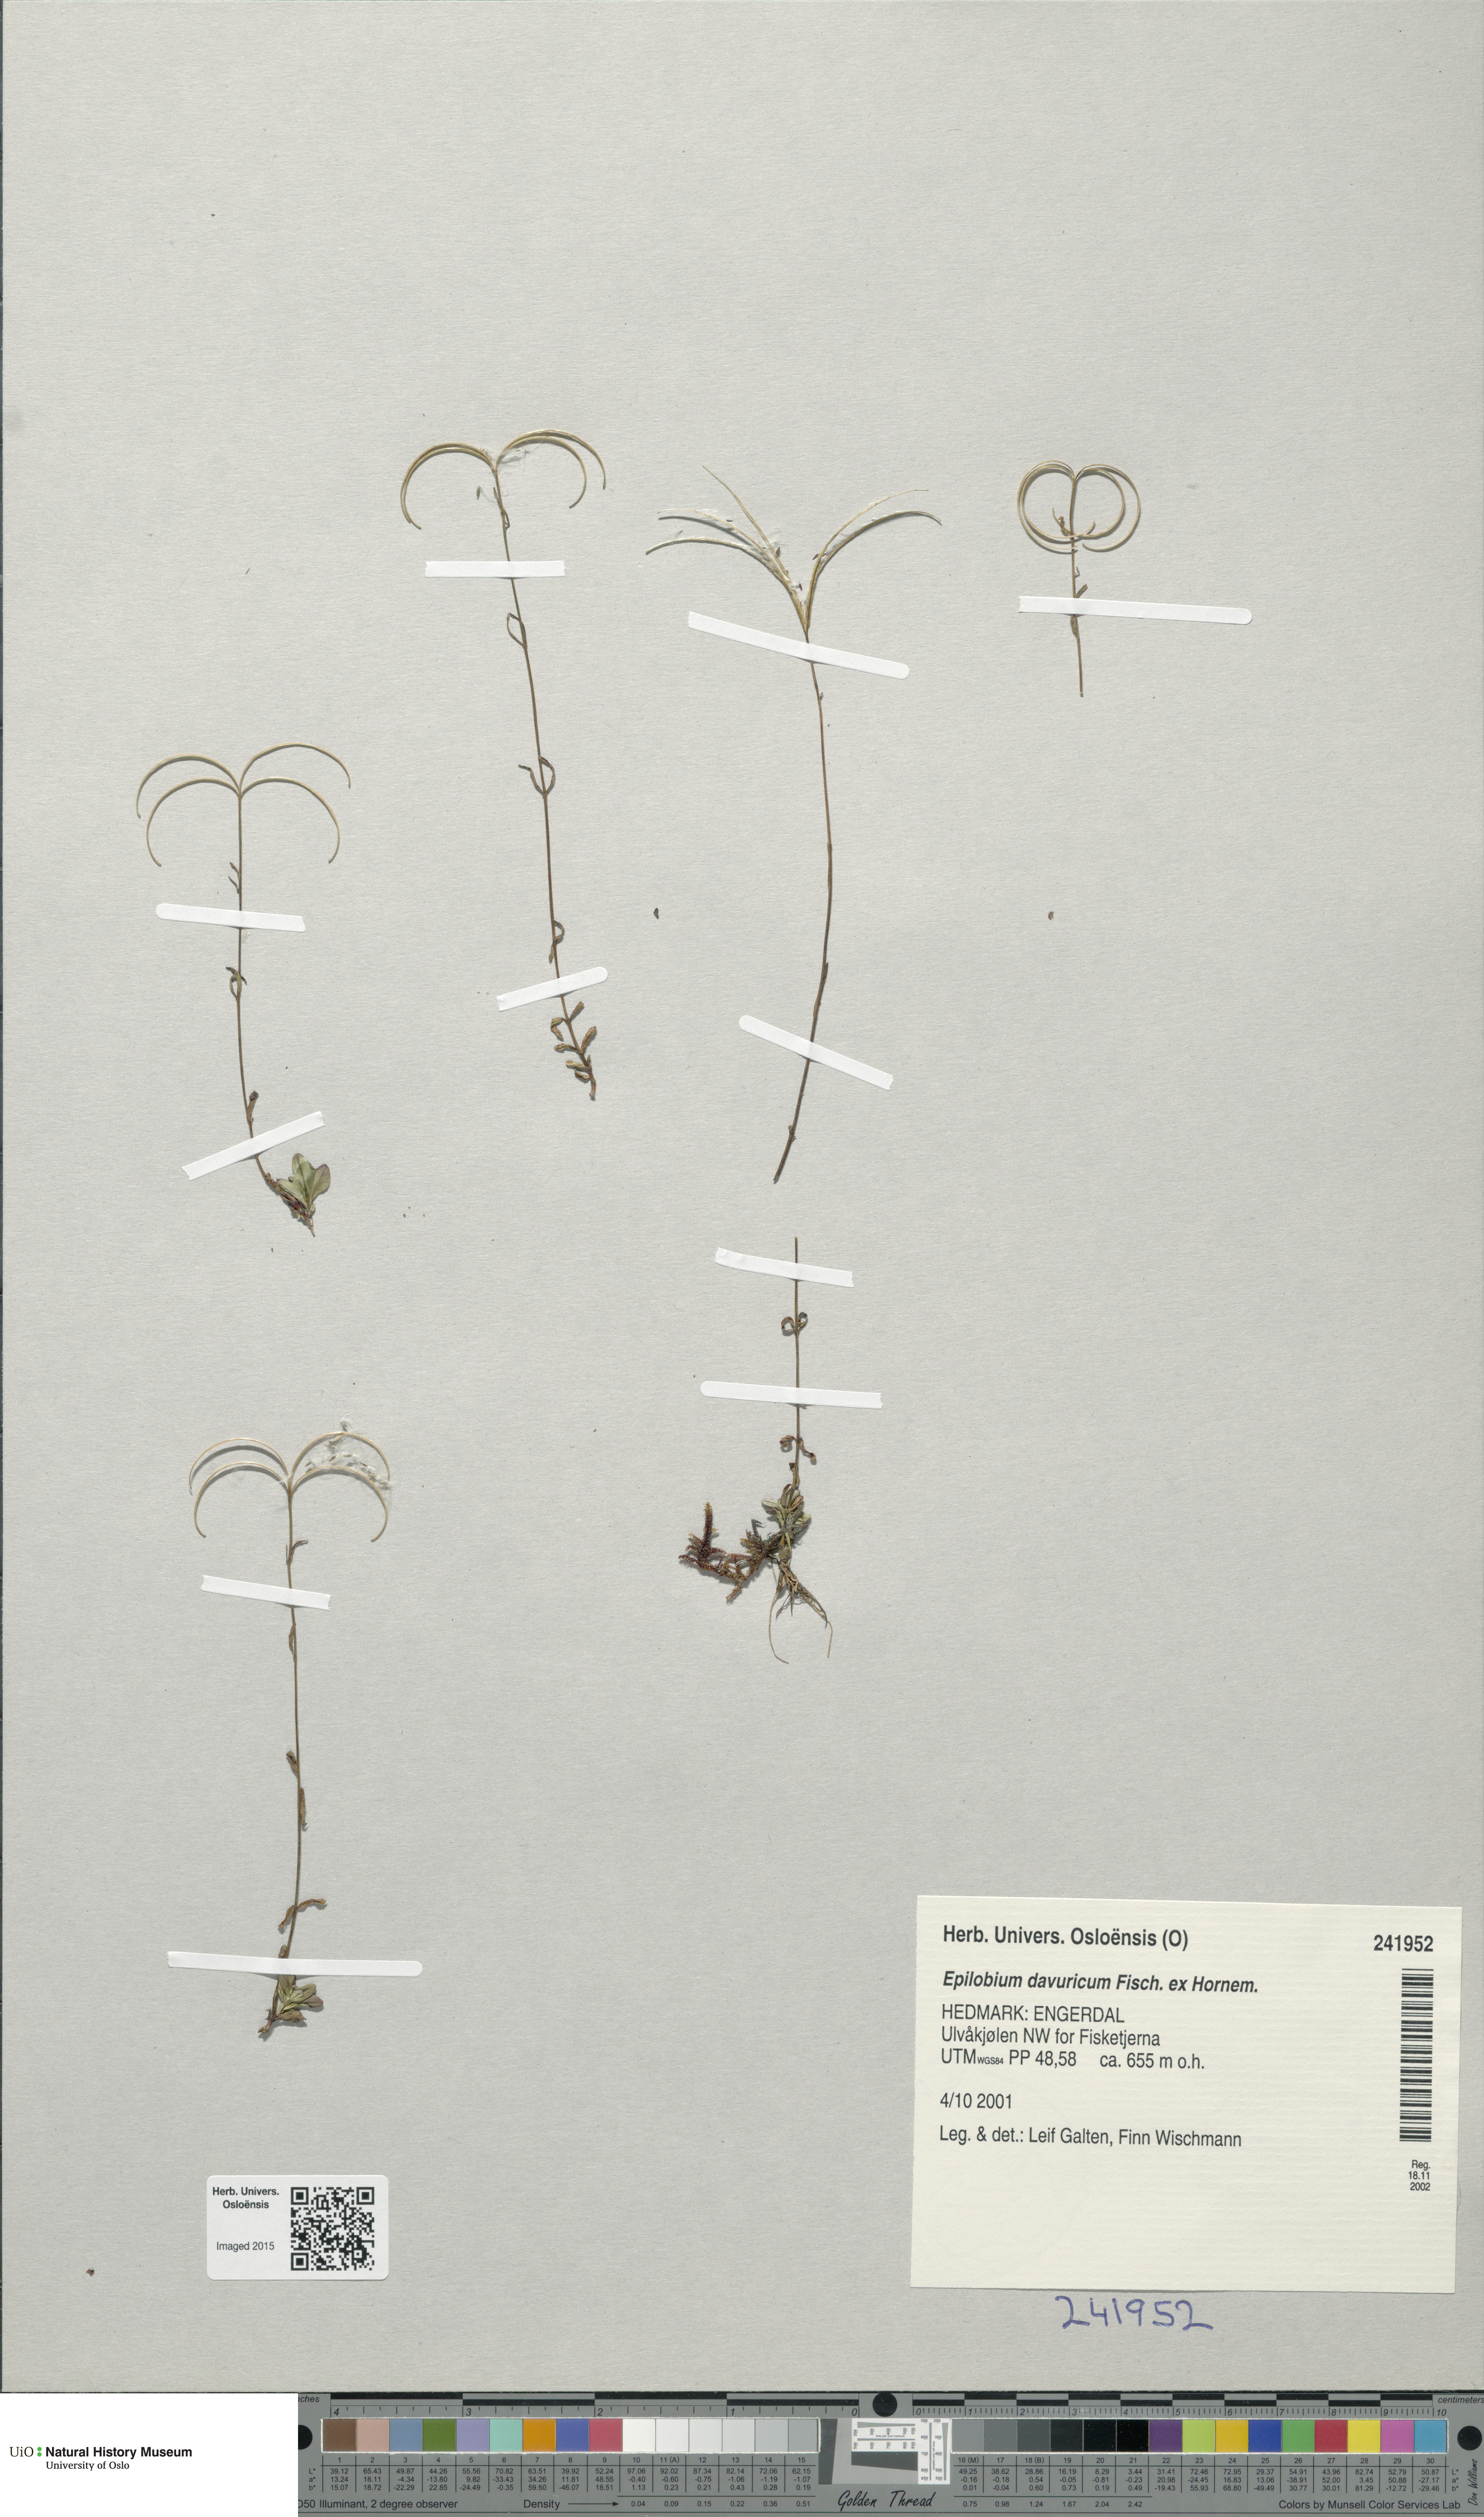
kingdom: Plantae
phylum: Tracheophyta
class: Magnoliopsida
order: Myrtales
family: Onagraceae
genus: Epilobium
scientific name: Epilobium davuricum
